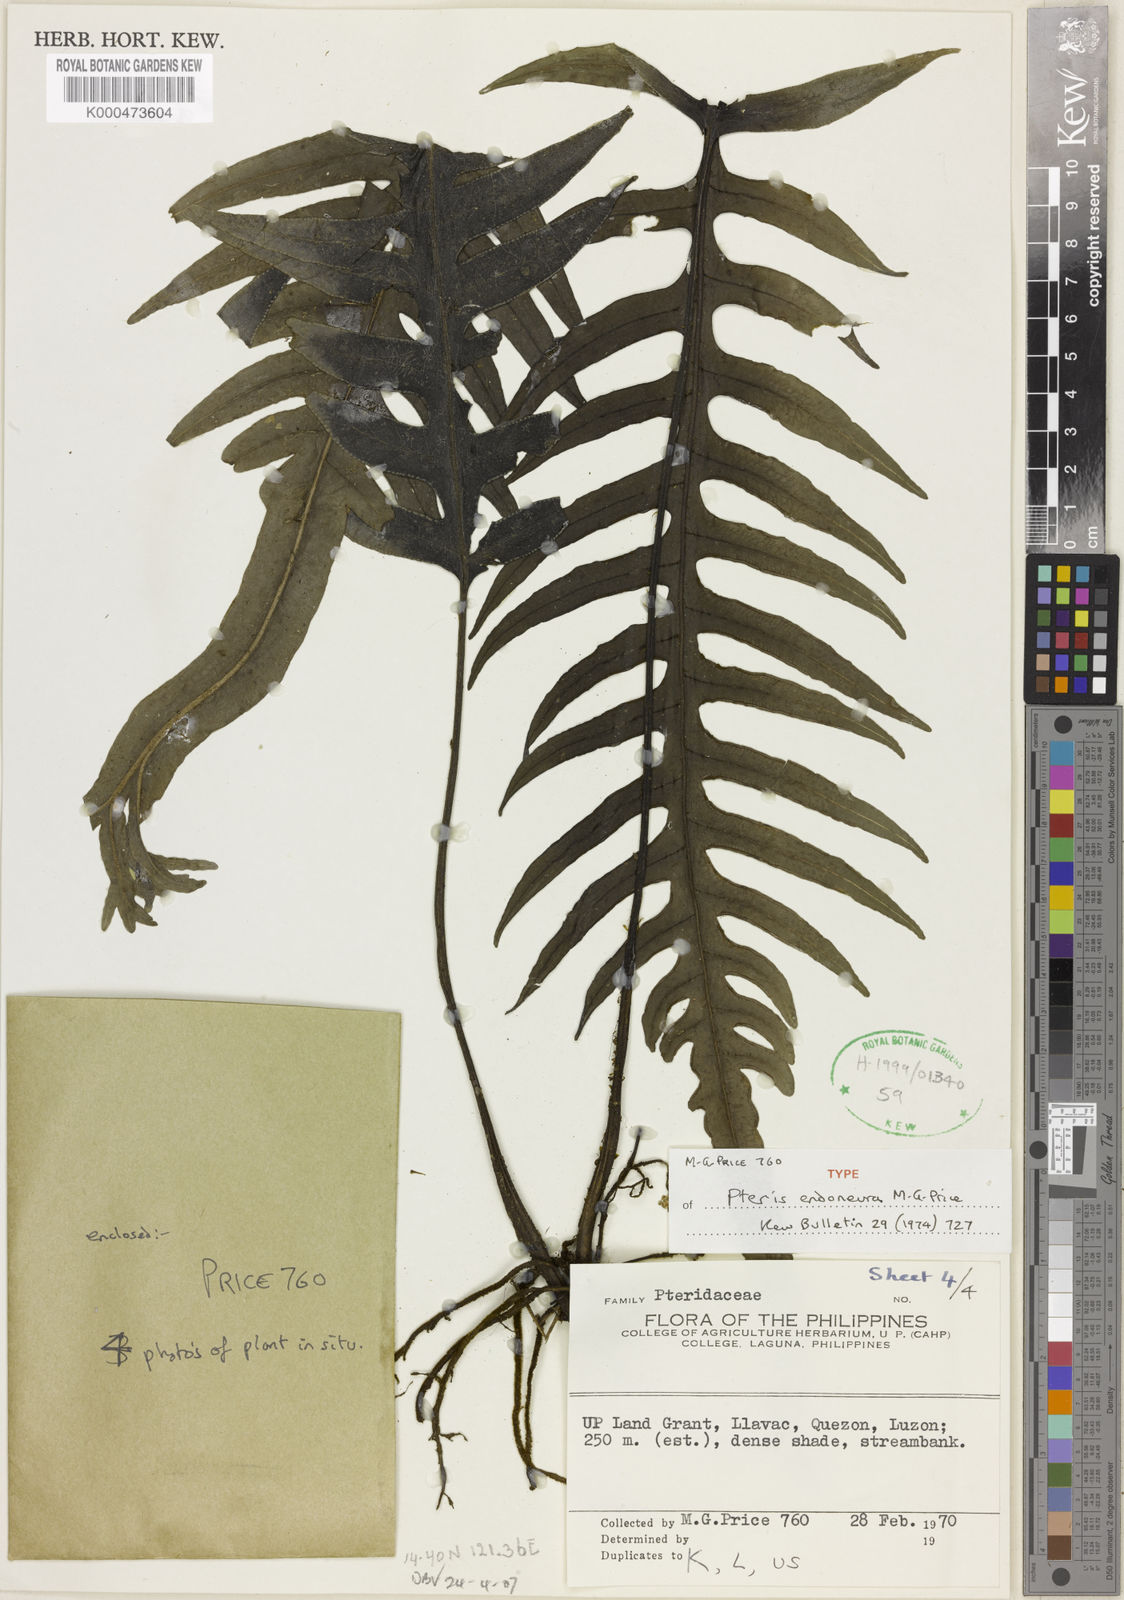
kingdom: Plantae
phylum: Tracheophyta
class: Polypodiopsida
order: Polypodiales
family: Pteridaceae
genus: Pteris
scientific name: Pteris endoneura
